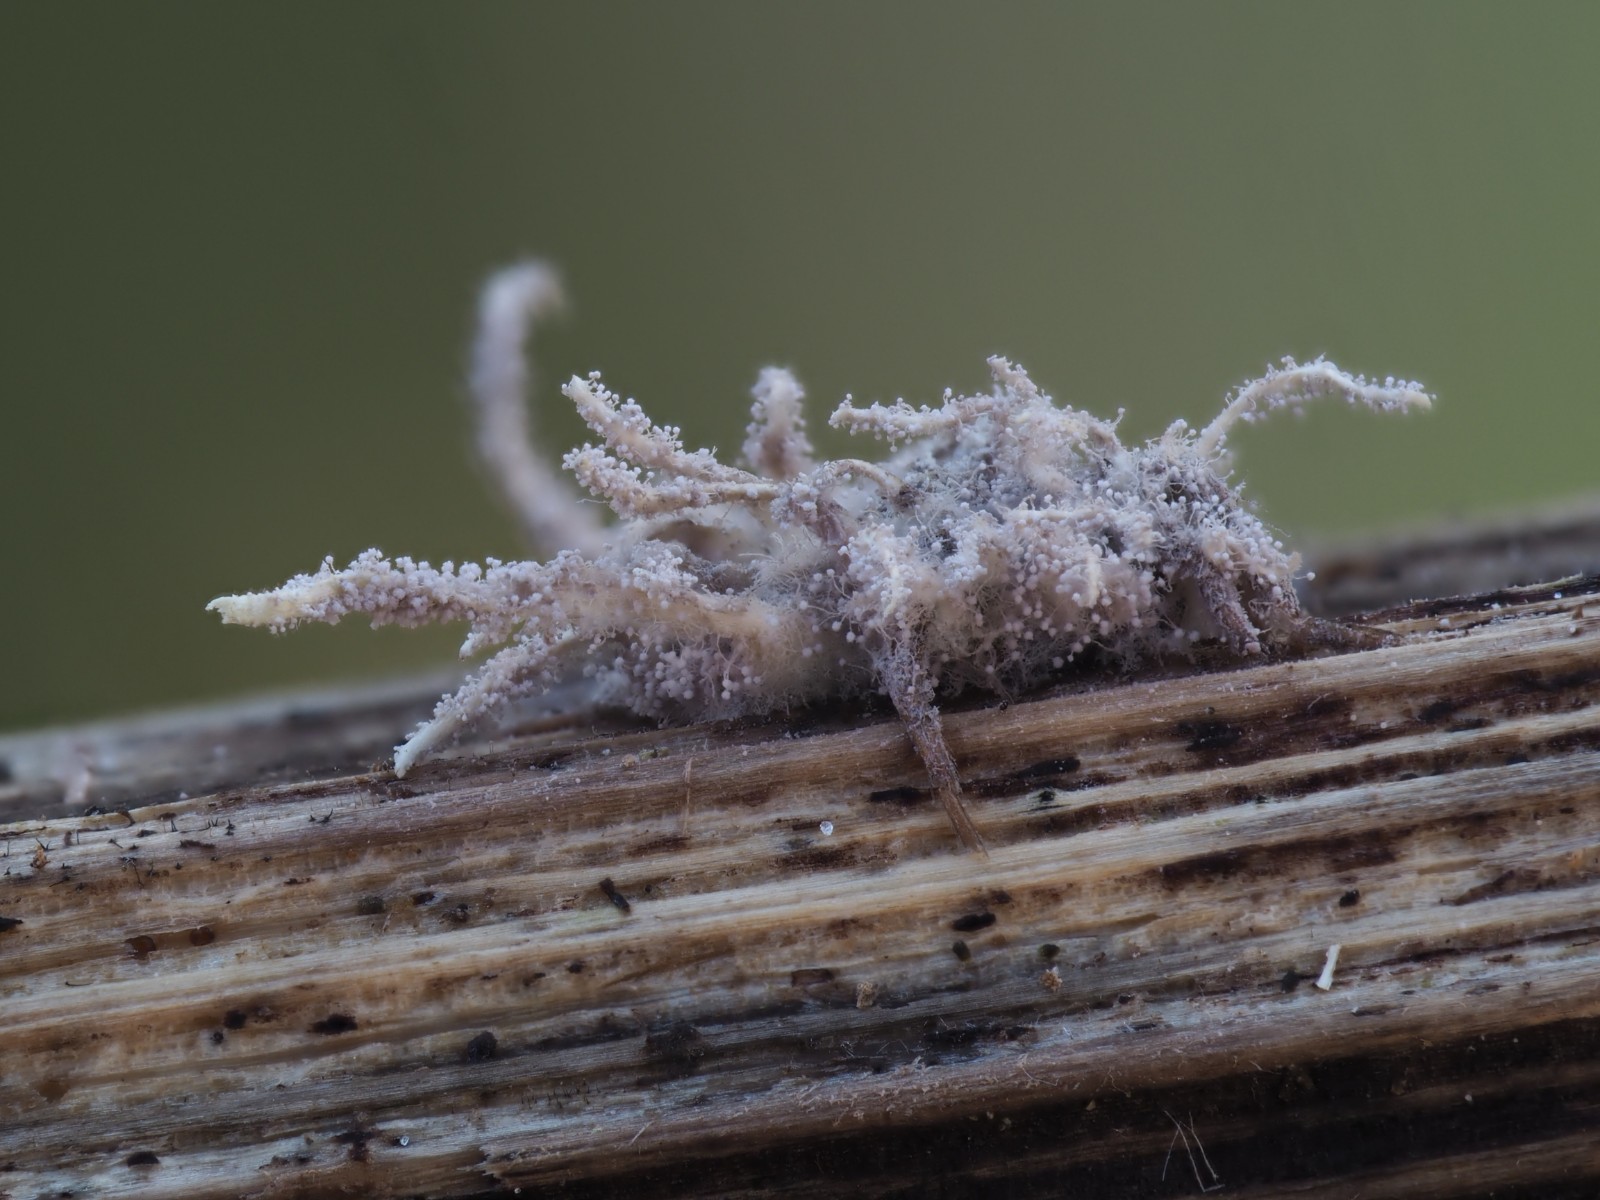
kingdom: Fungi
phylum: Ascomycota
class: Sordariomycetes
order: Hypocreales
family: Cordycipitaceae
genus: Gibellula
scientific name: Gibellula pulchra
